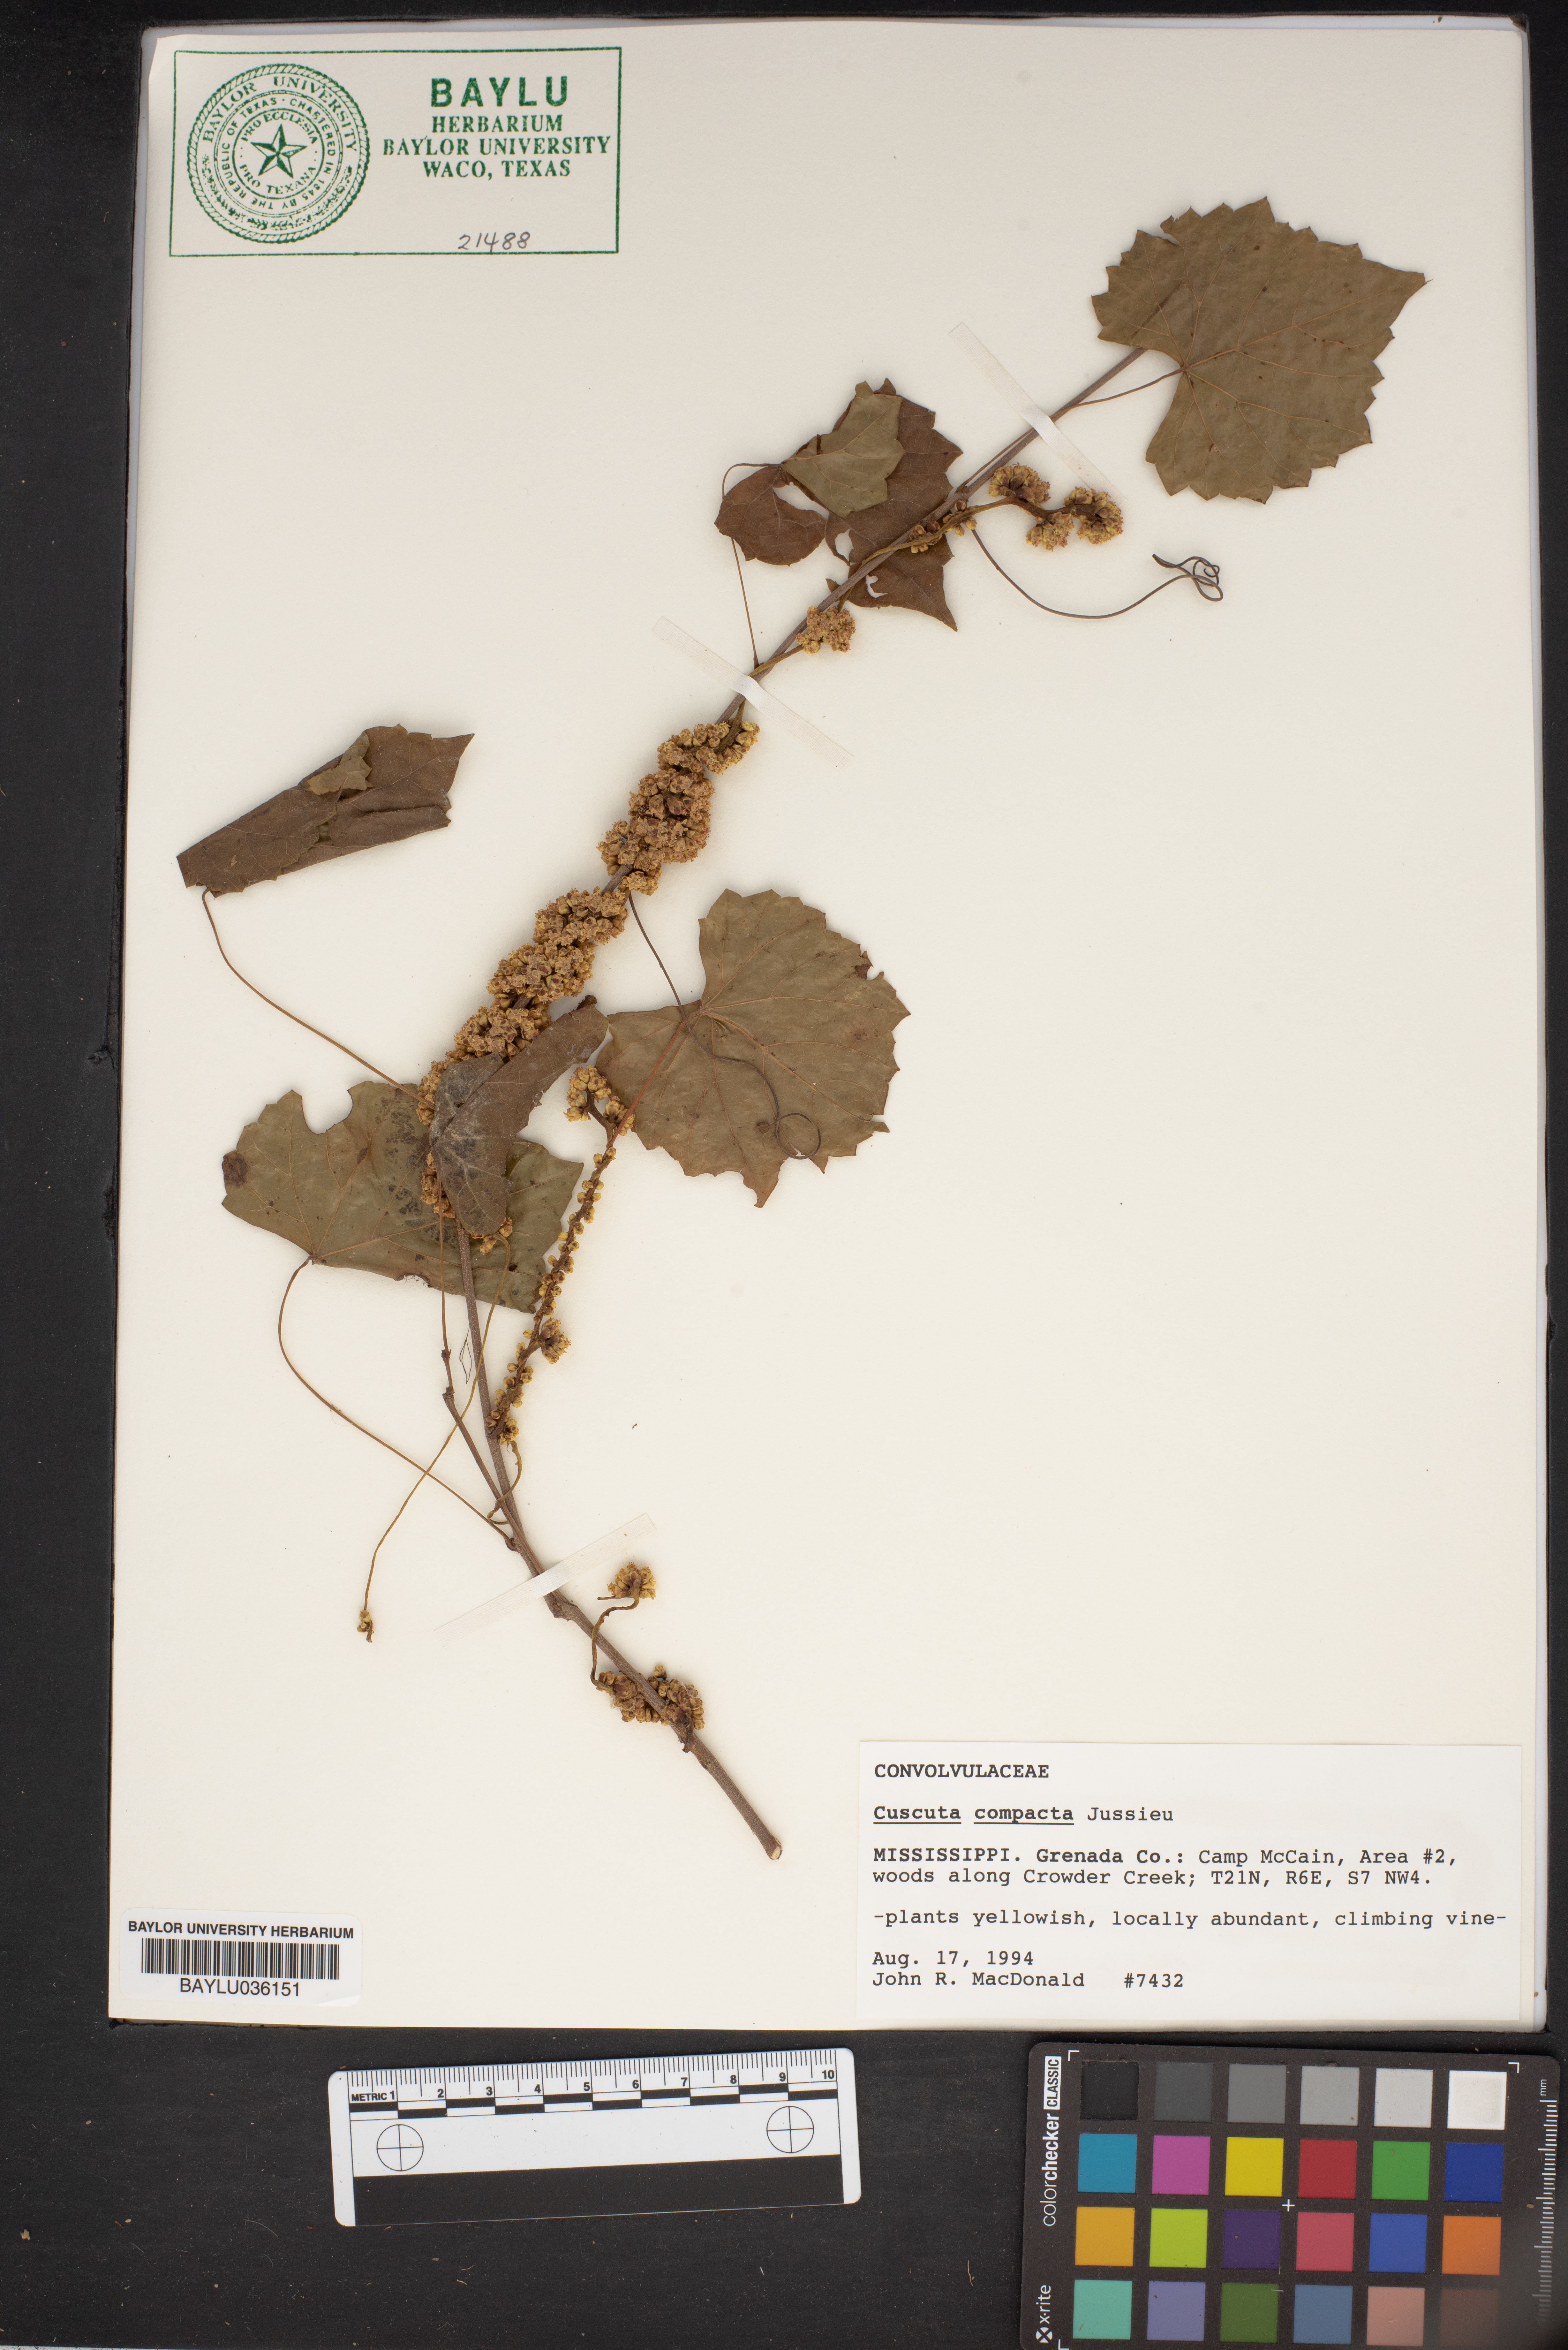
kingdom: Plantae
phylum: Tracheophyta
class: Magnoliopsida
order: Solanales
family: Convolvulaceae
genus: Cuscuta
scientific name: Cuscuta compacta
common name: Compact dodder
